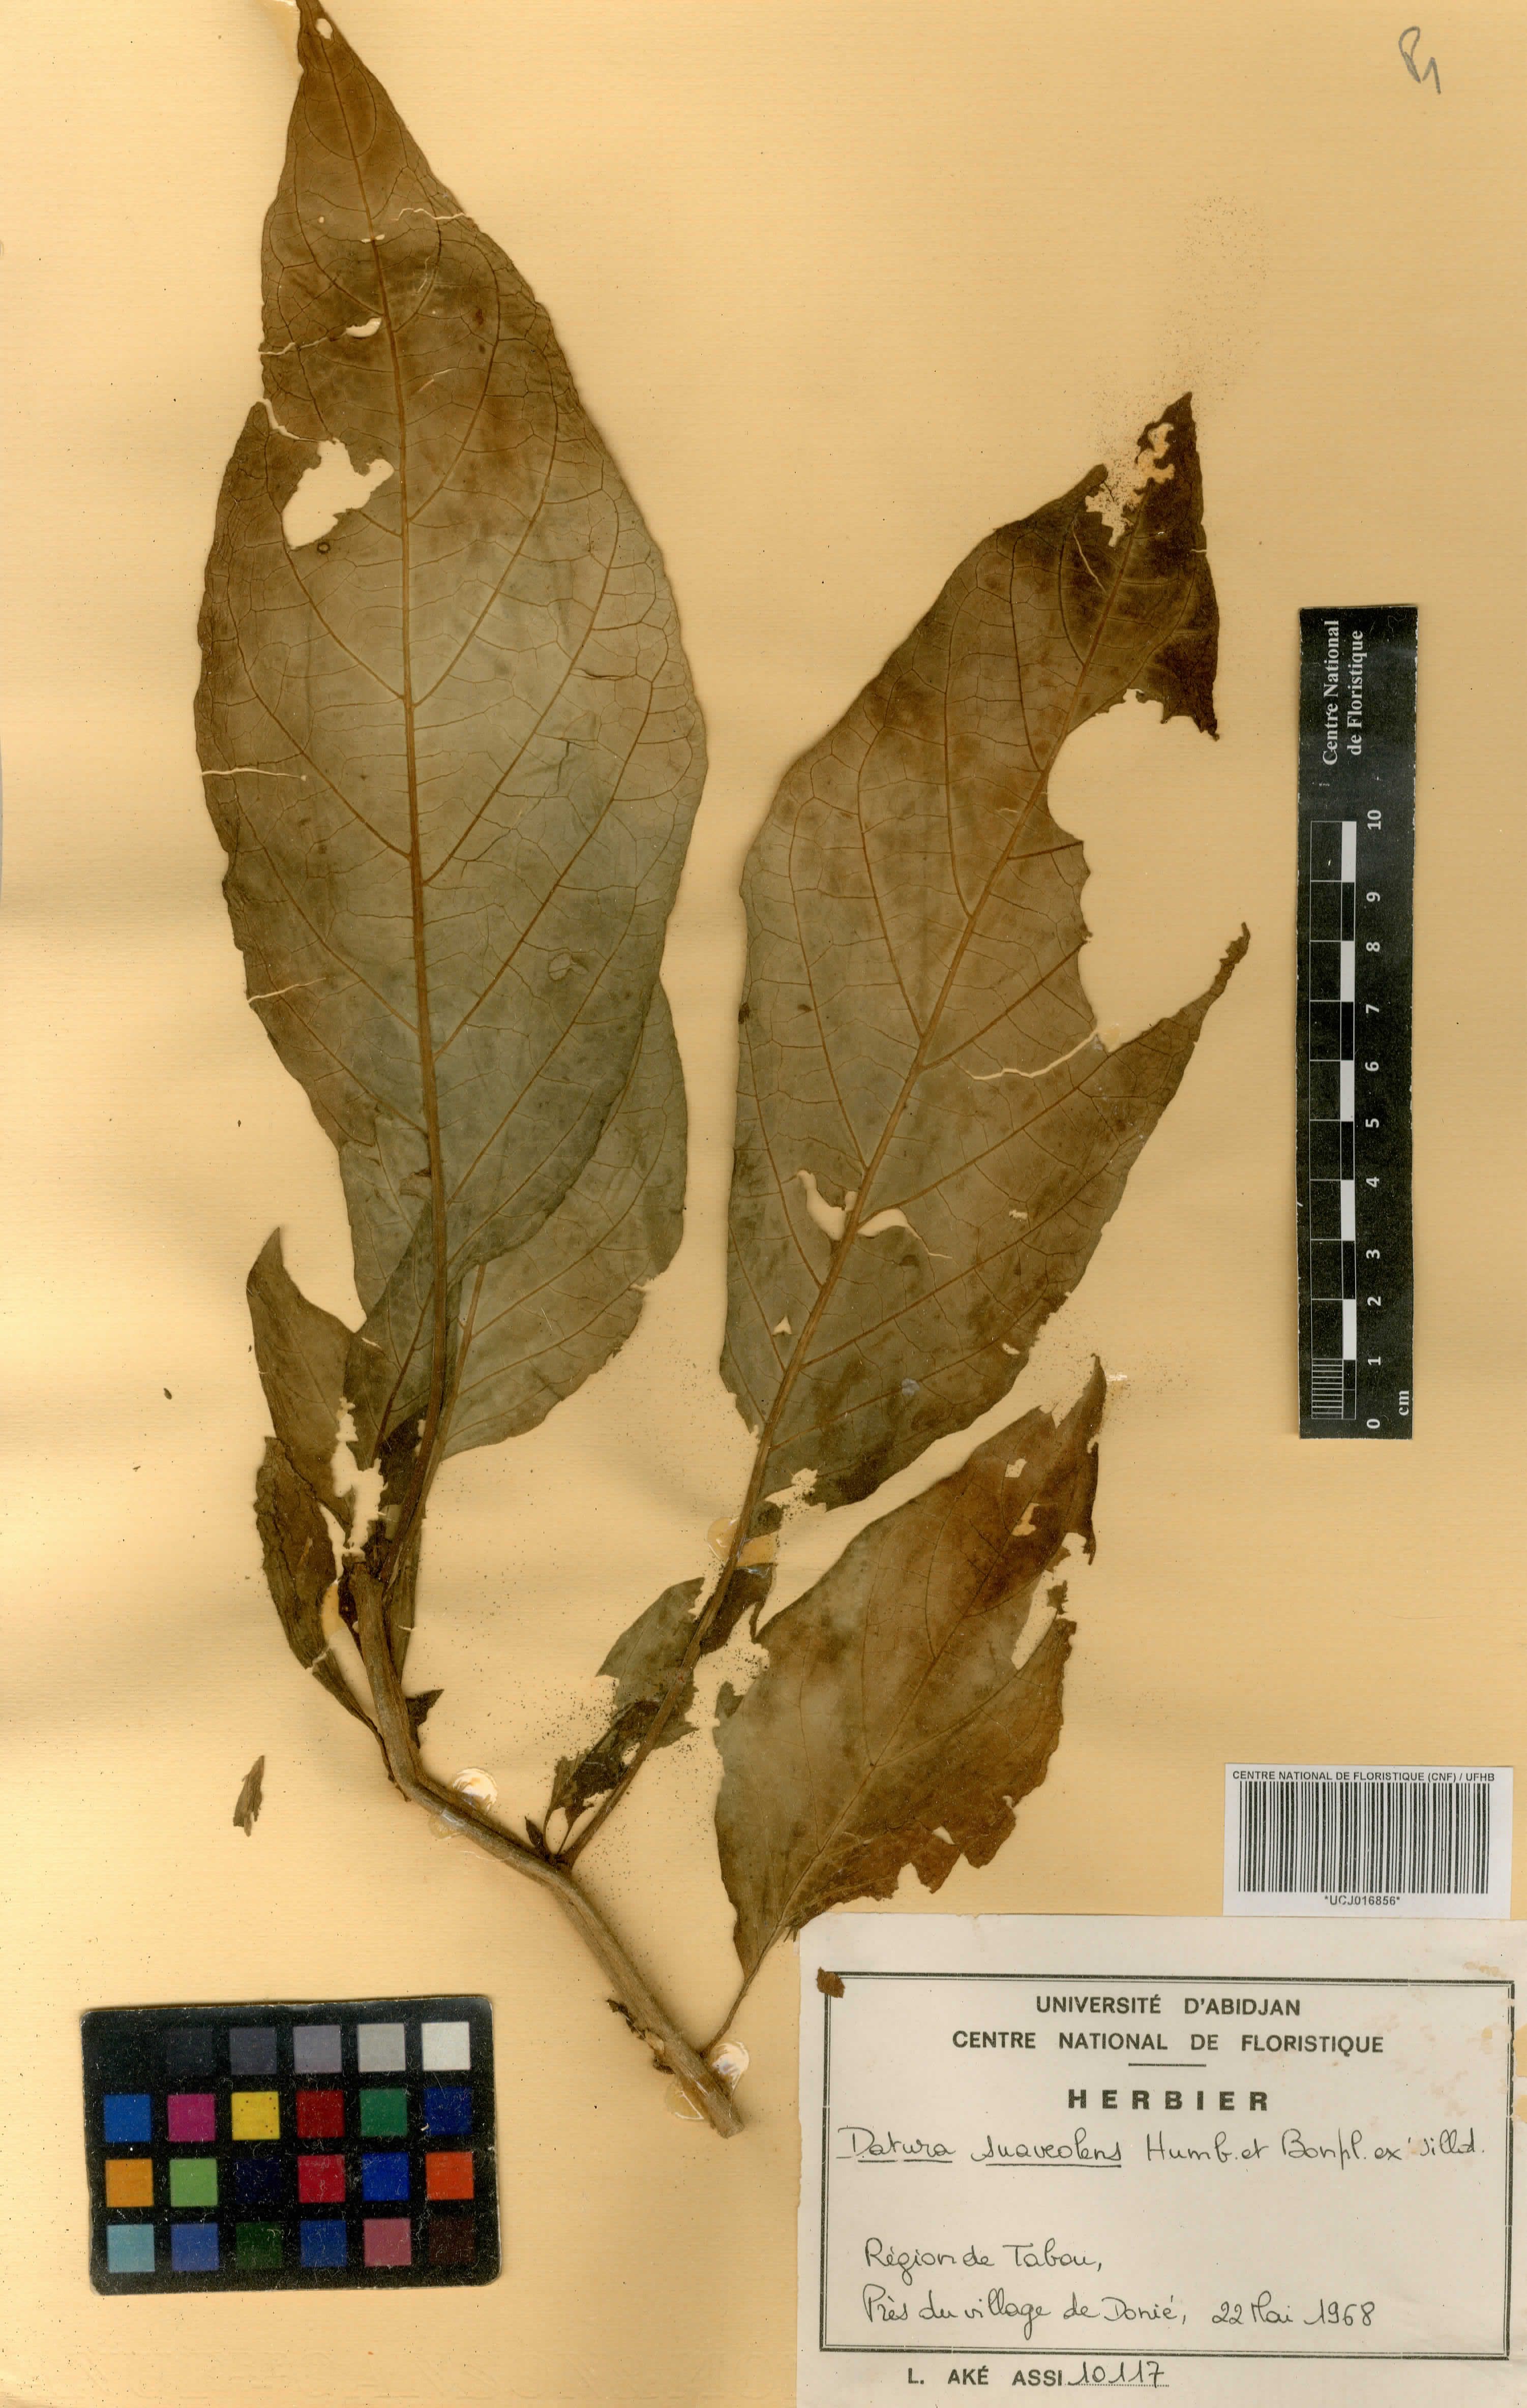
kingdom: Plantae
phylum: Tracheophyta
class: Magnoliopsida
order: Solanales
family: Solanaceae
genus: Brugmansia
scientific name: Brugmansia suaveolens
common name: Angel's tears
